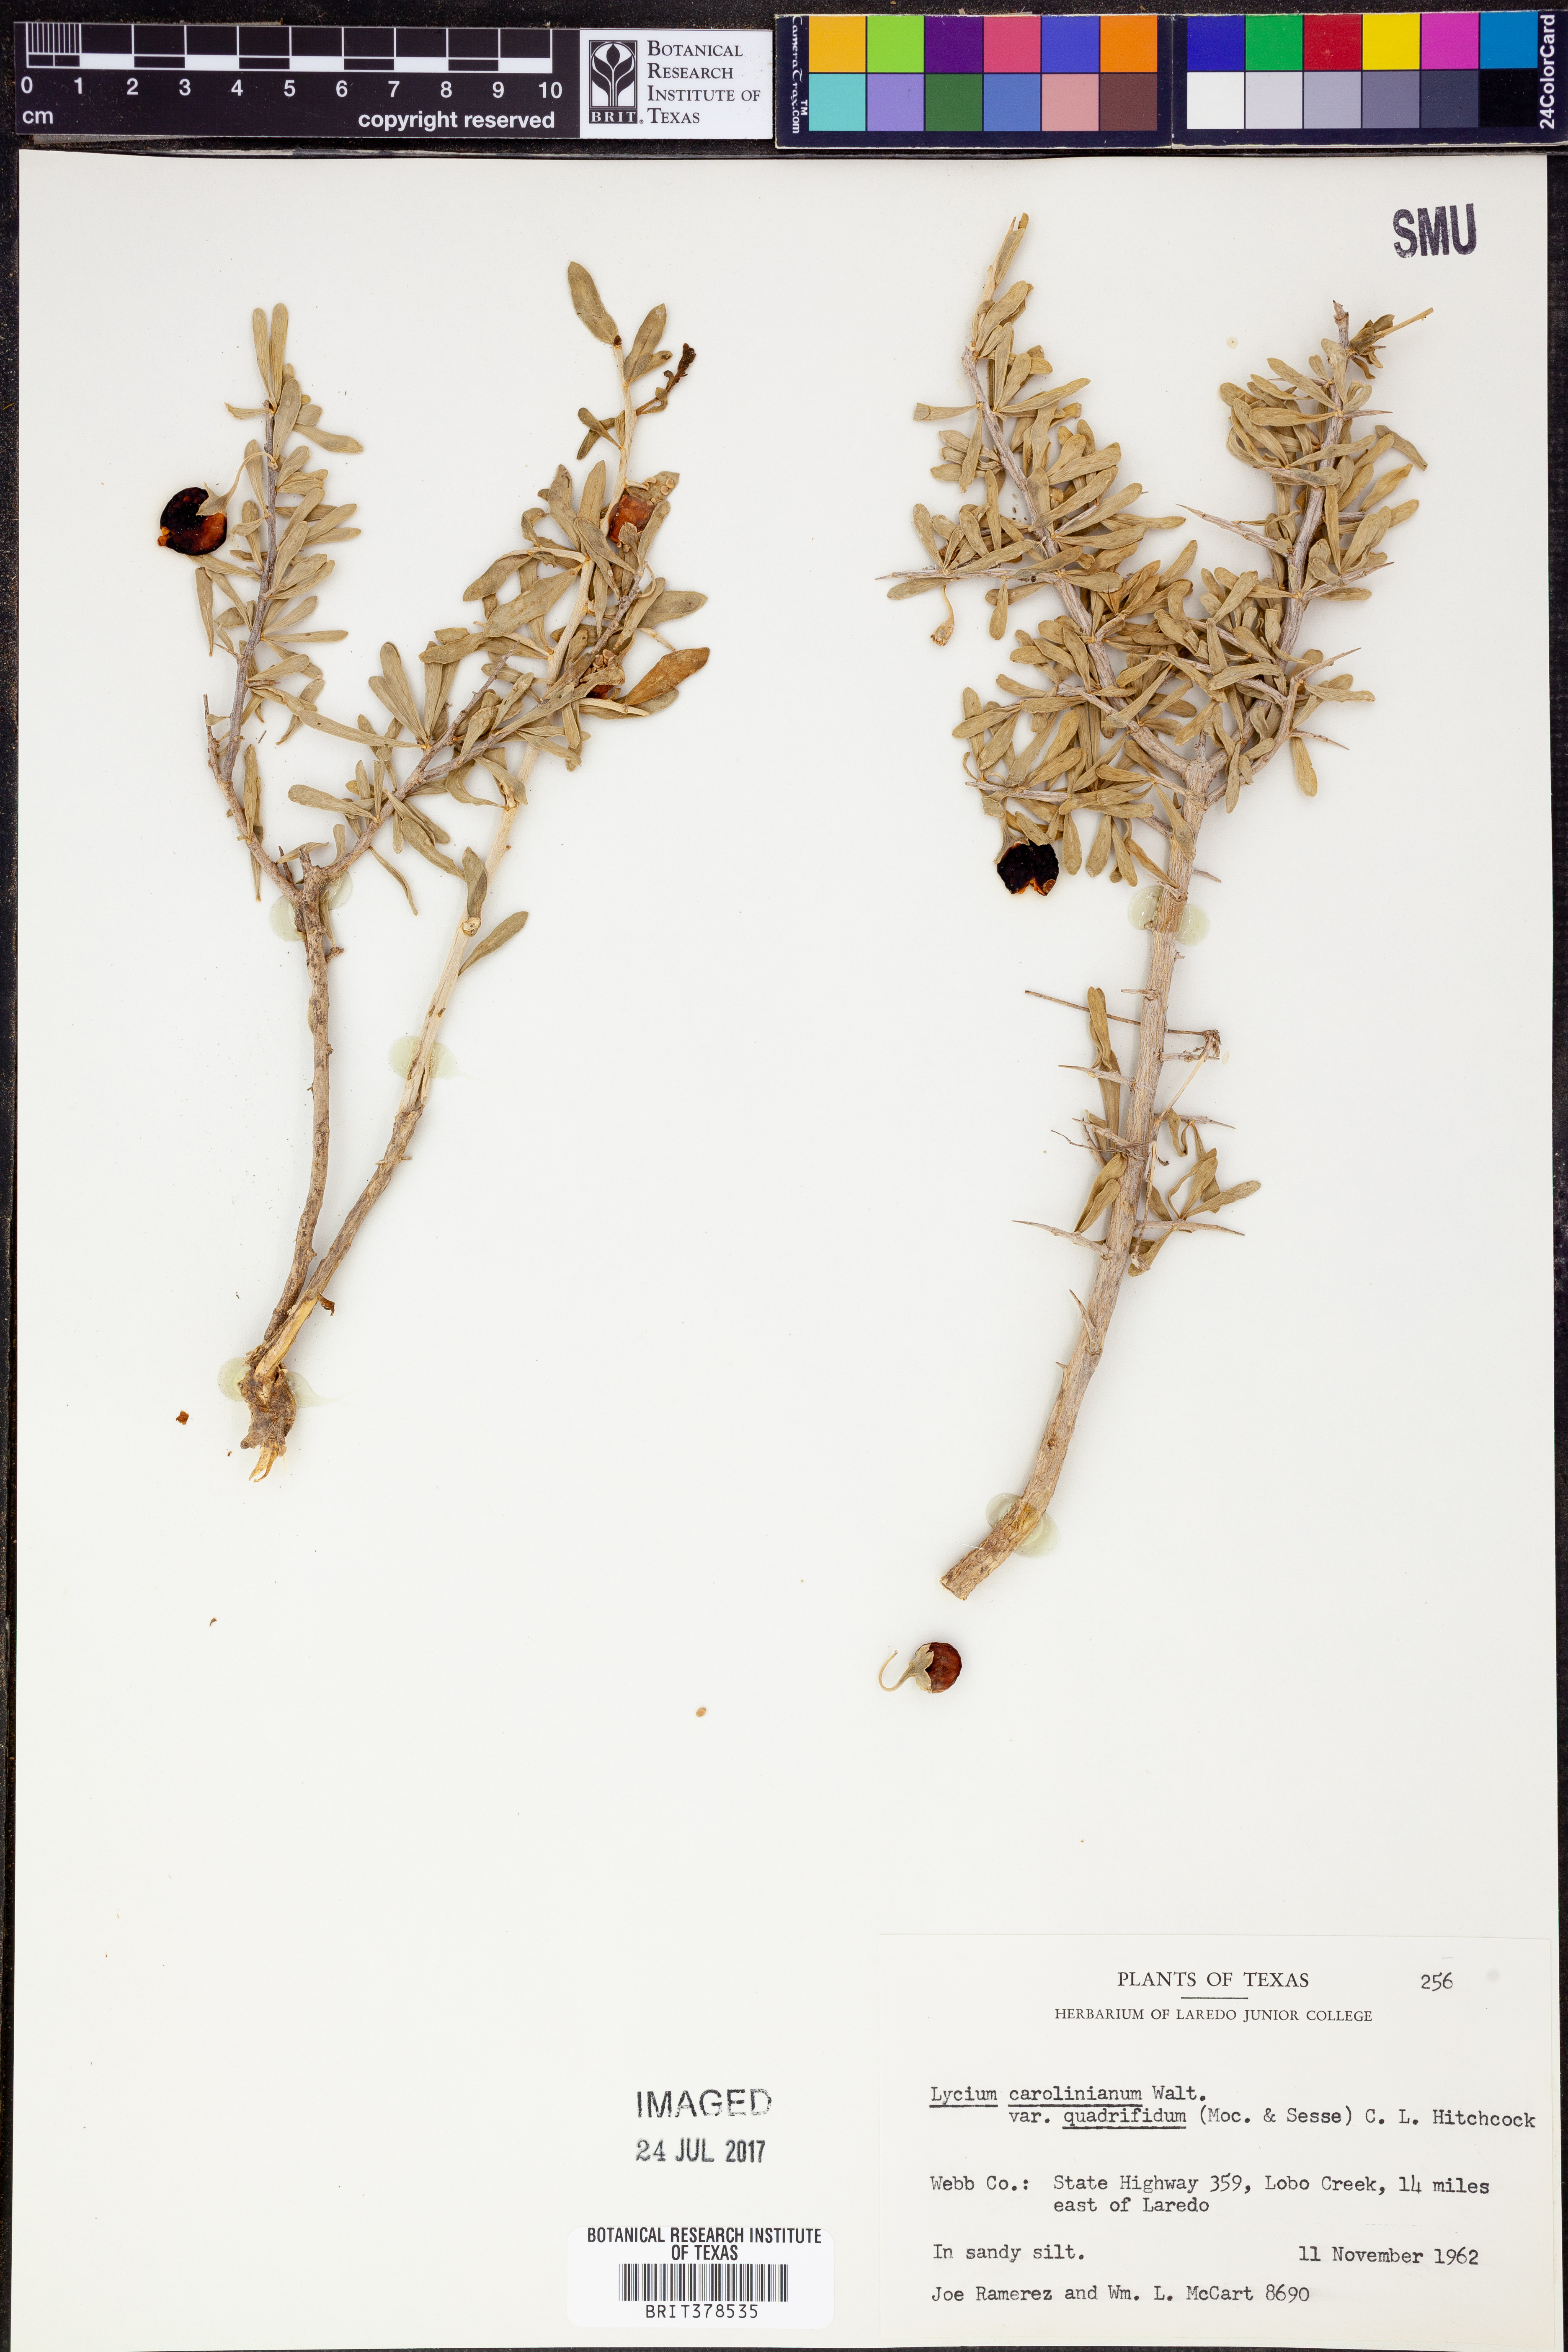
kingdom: Plantae
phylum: Tracheophyta
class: Magnoliopsida
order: Solanales
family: Solanaceae
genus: Lycium
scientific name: Lycium carolinianum
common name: Christmasberry
